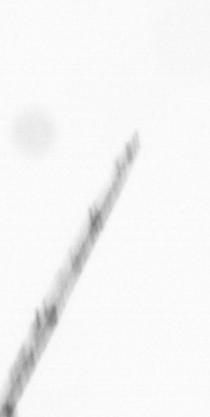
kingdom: Chromista
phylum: Ochrophyta
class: Bacillariophyceae
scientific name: Bacillariophyceae
